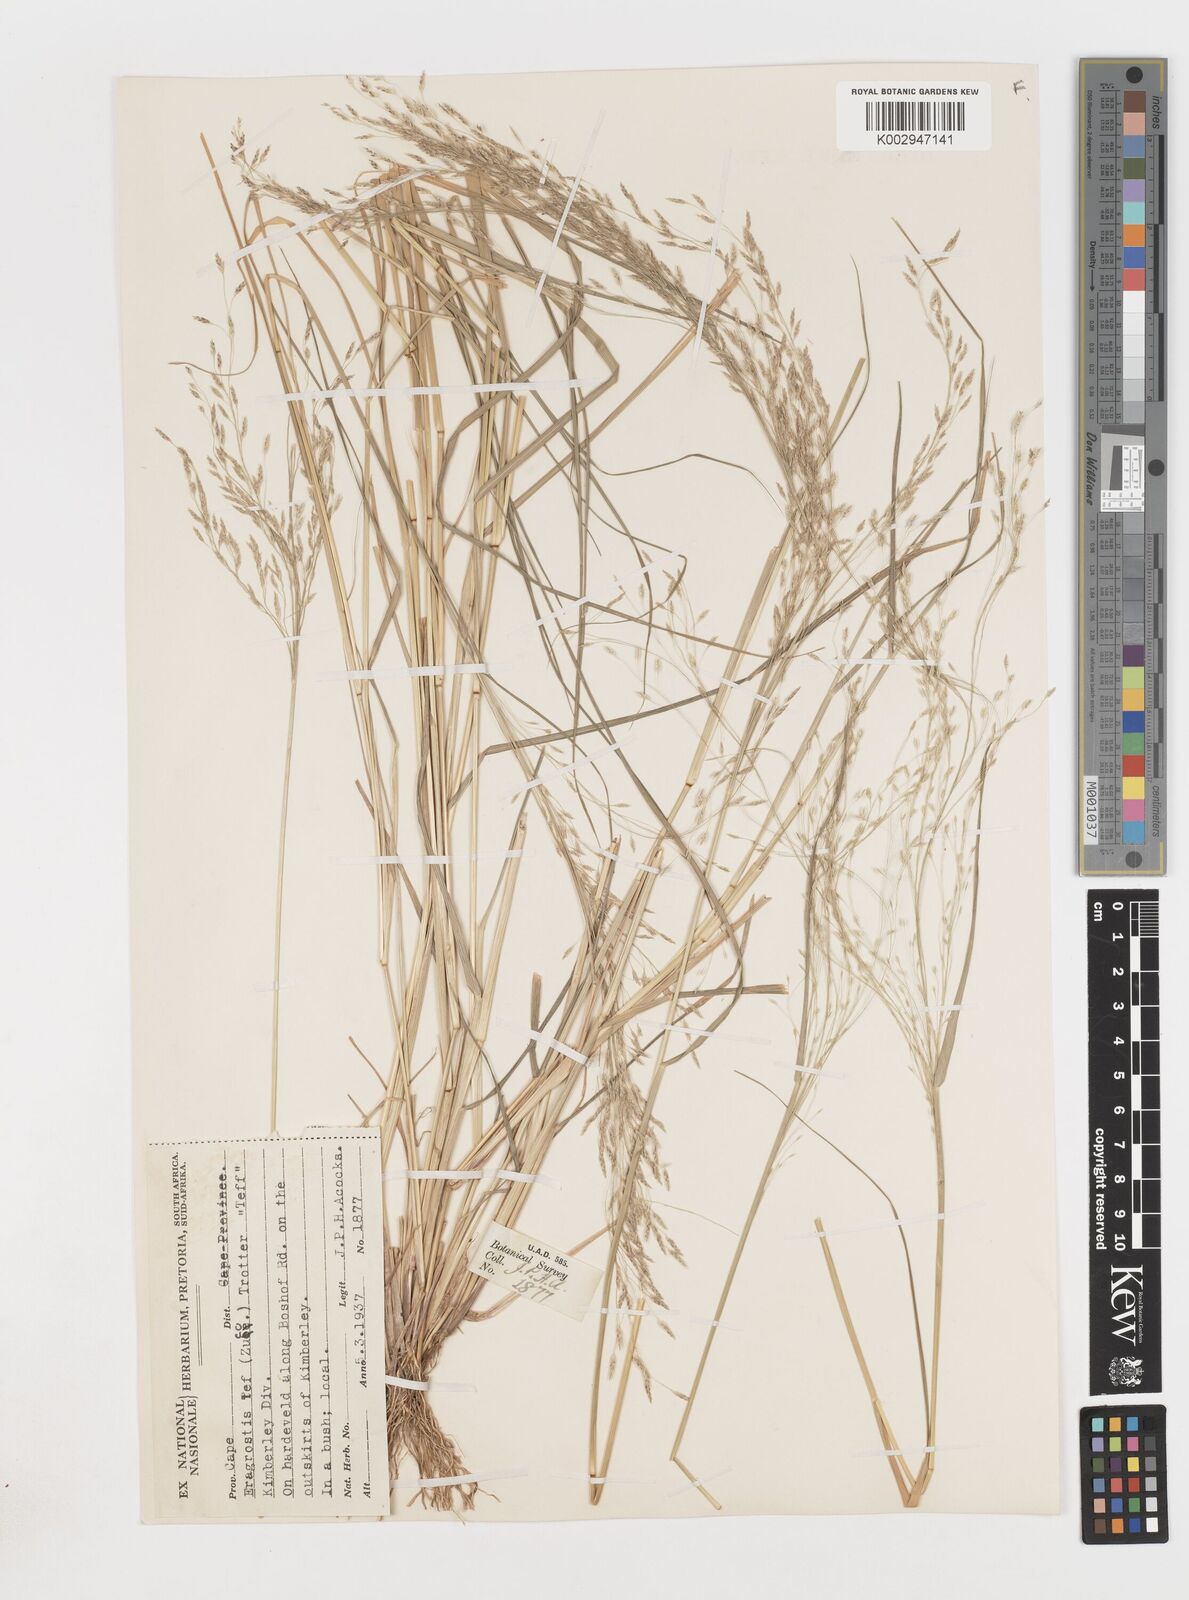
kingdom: Plantae
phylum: Tracheophyta
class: Liliopsida
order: Poales
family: Poaceae
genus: Eragrostis
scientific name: Eragrostis tef
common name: Teff
